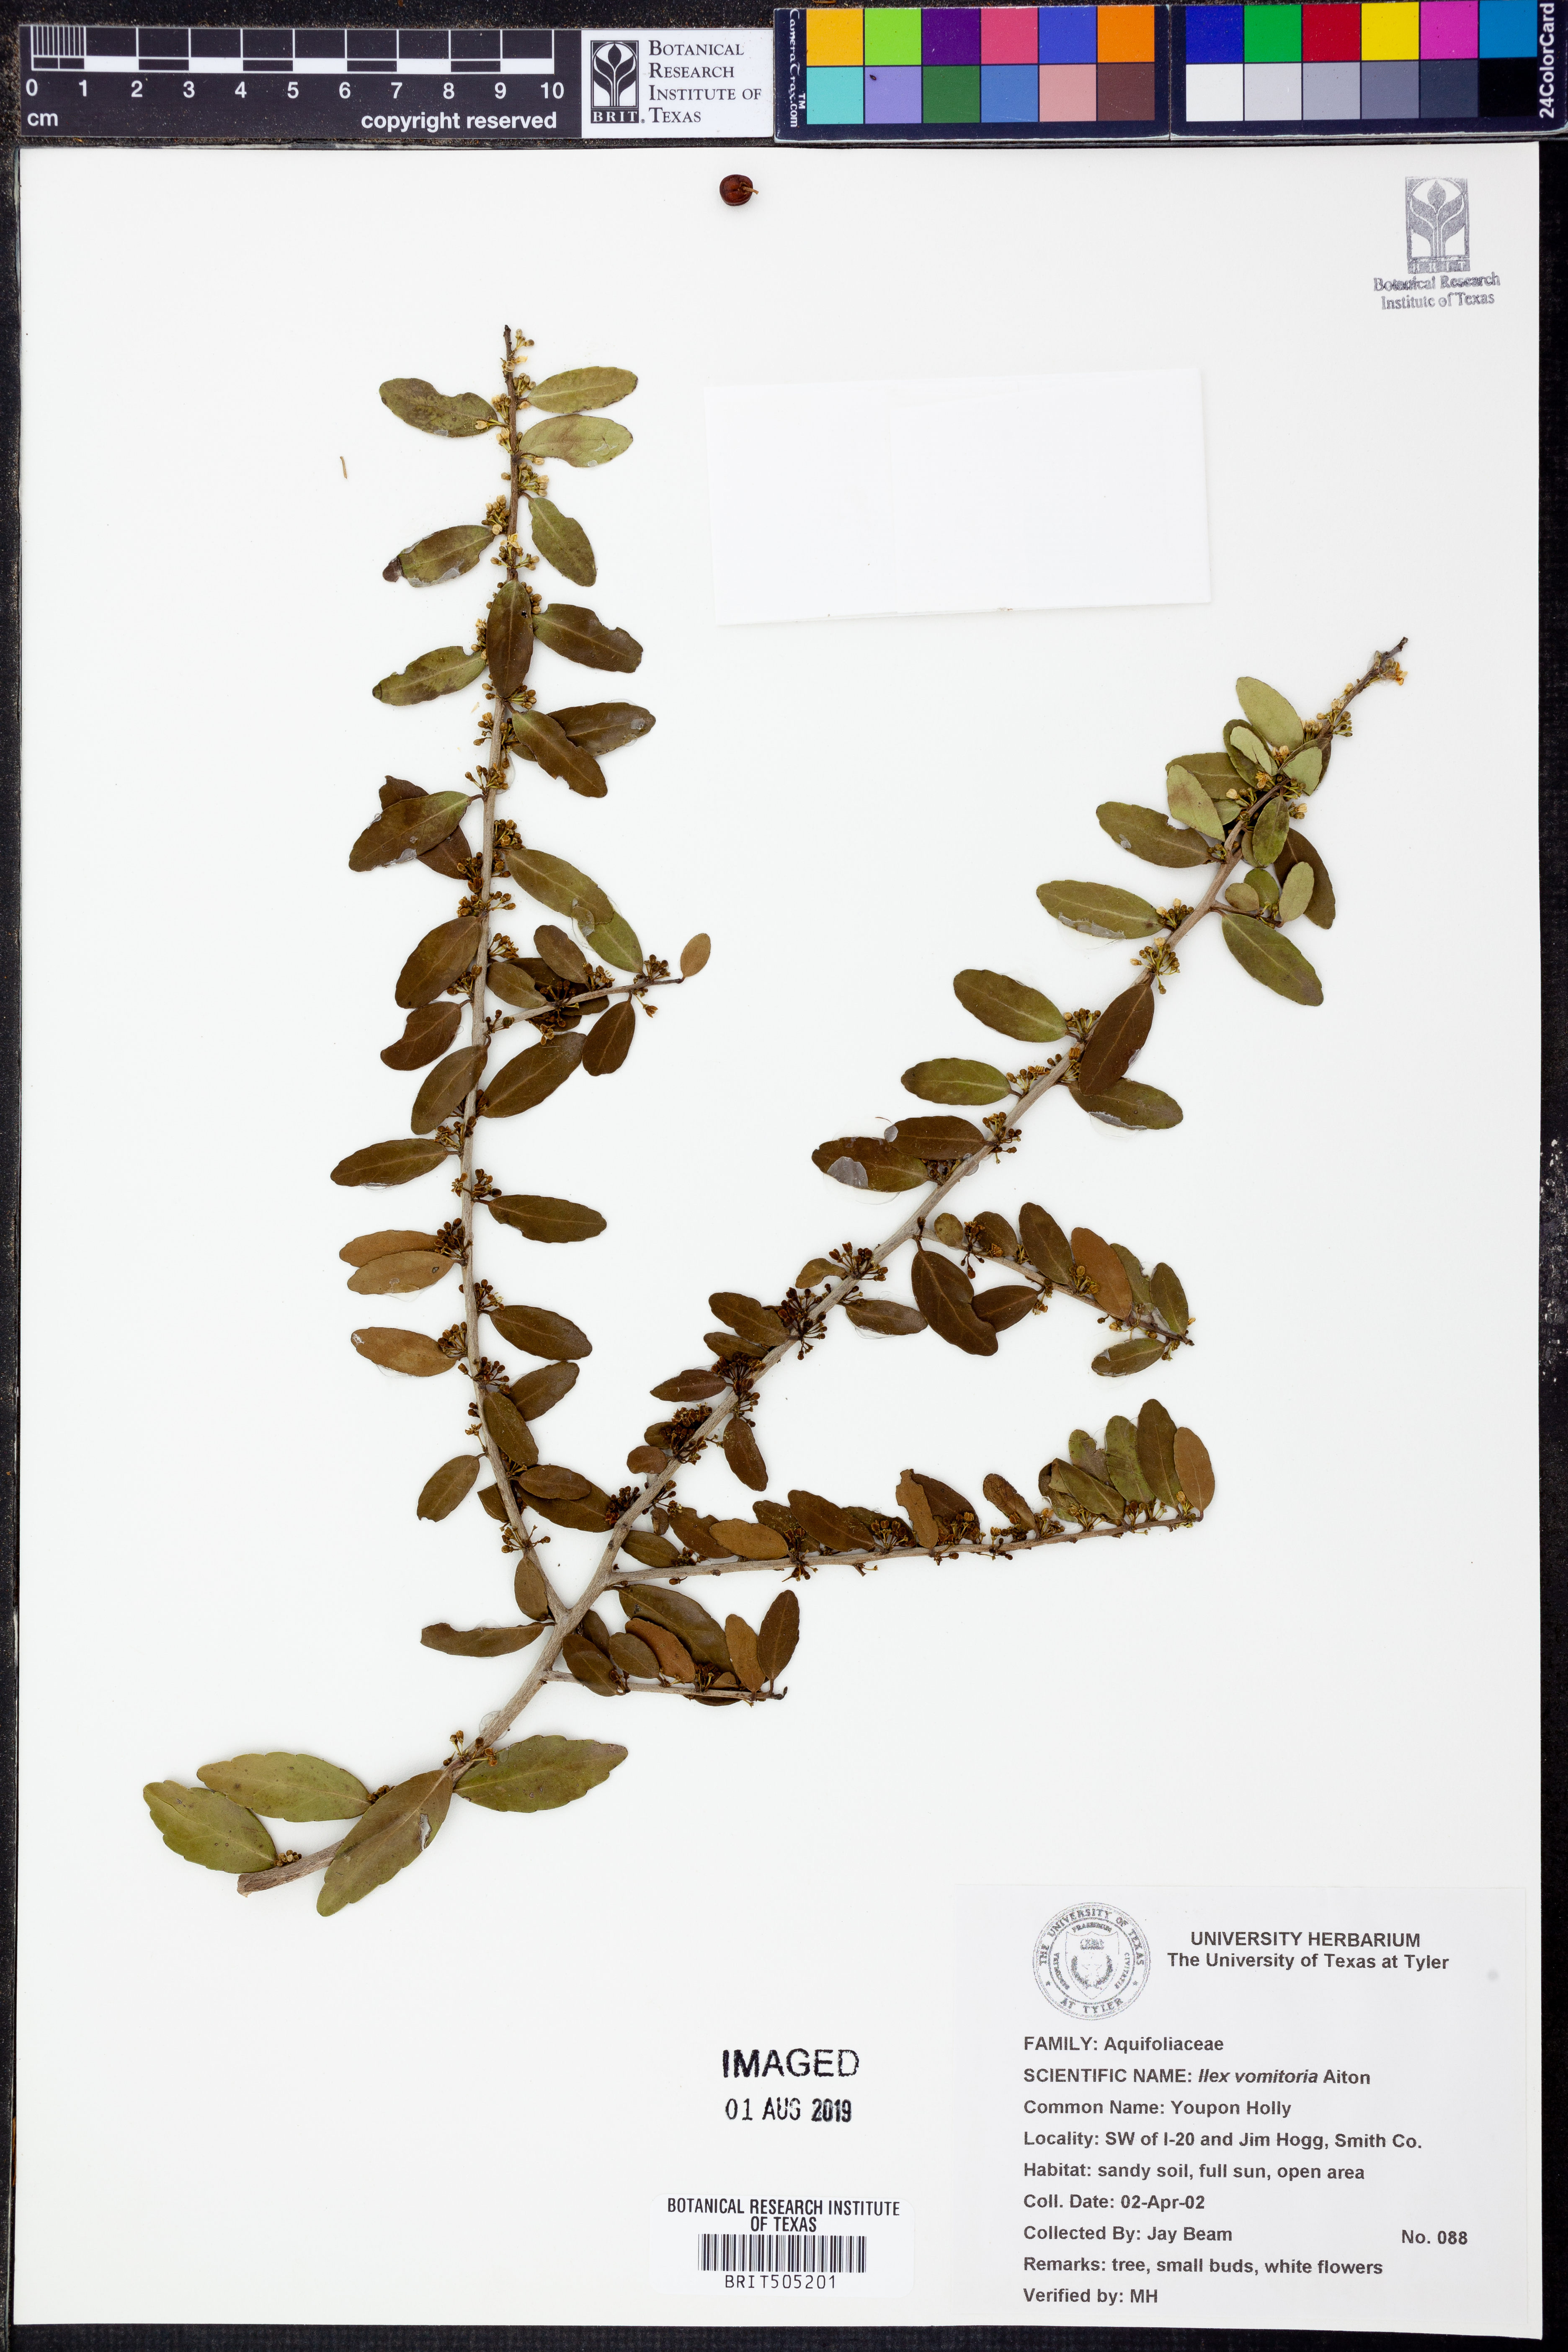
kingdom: Plantae
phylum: Tracheophyta
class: Magnoliopsida
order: Aquifoliales
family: Aquifoliaceae
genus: Ilex
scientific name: Ilex vomitoria
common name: Yaupon holly
